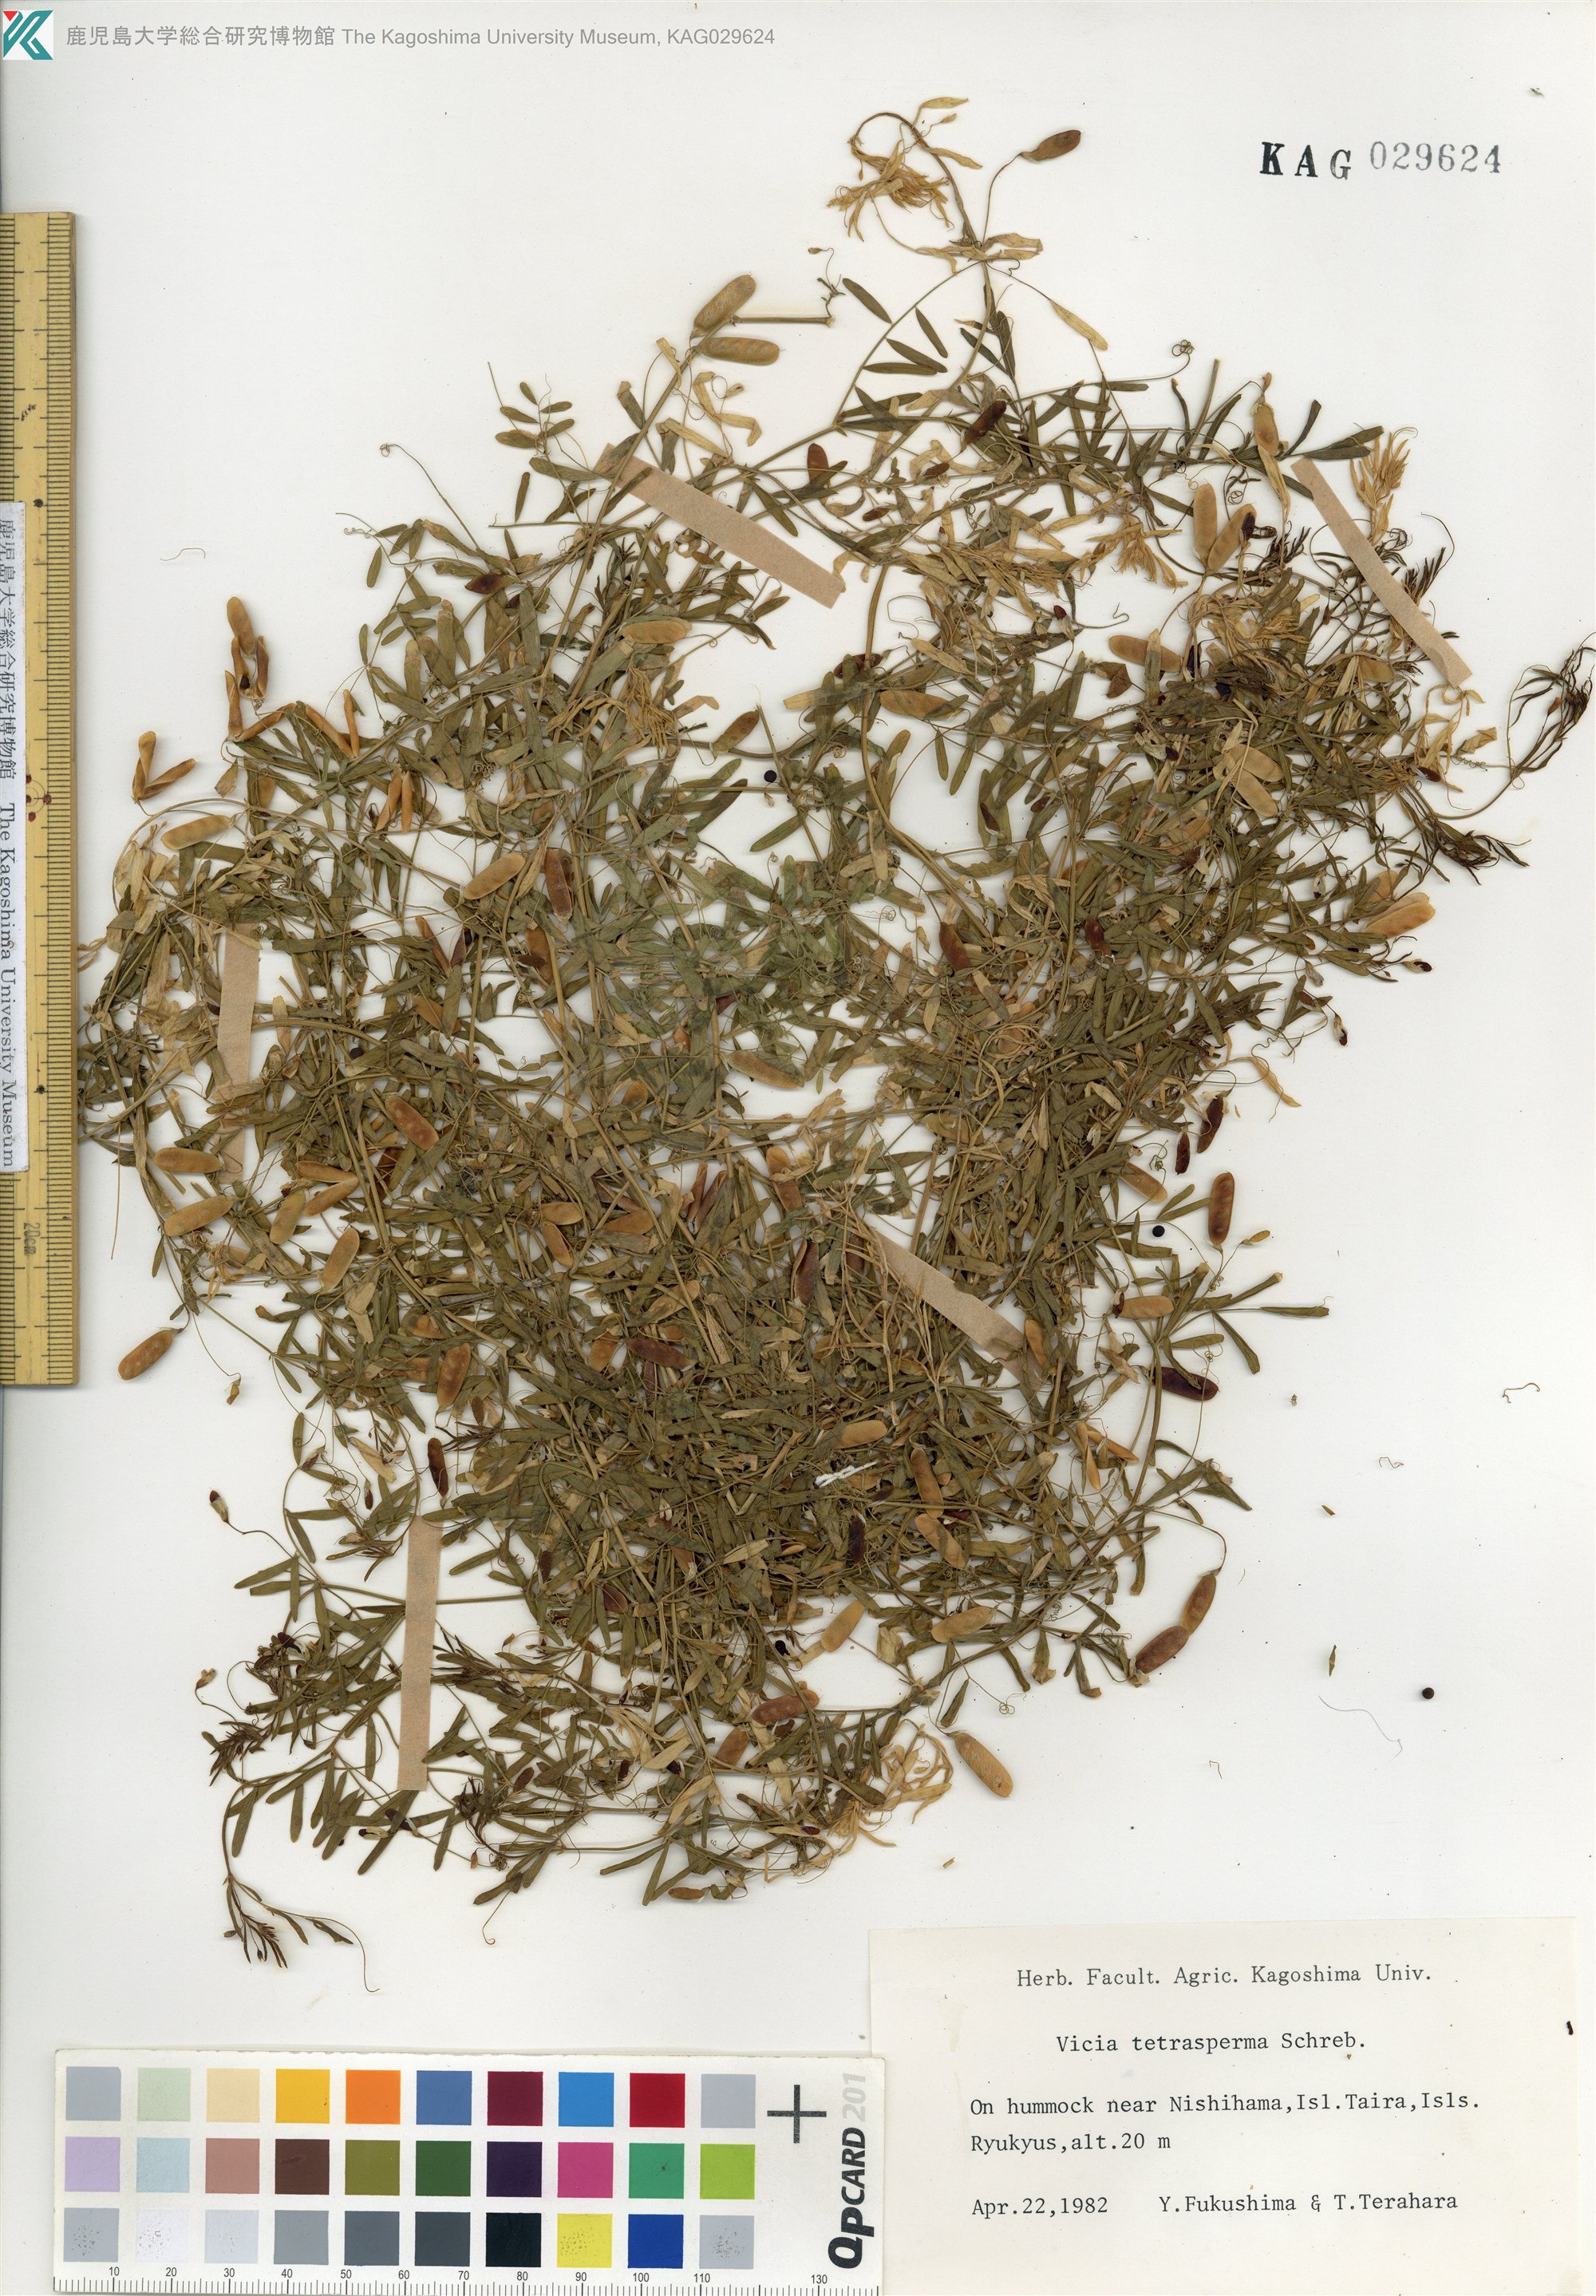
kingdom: Plantae
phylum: Tracheophyta
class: Magnoliopsida
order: Fabales
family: Fabaceae
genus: Vicia
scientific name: Vicia tetrasperma
